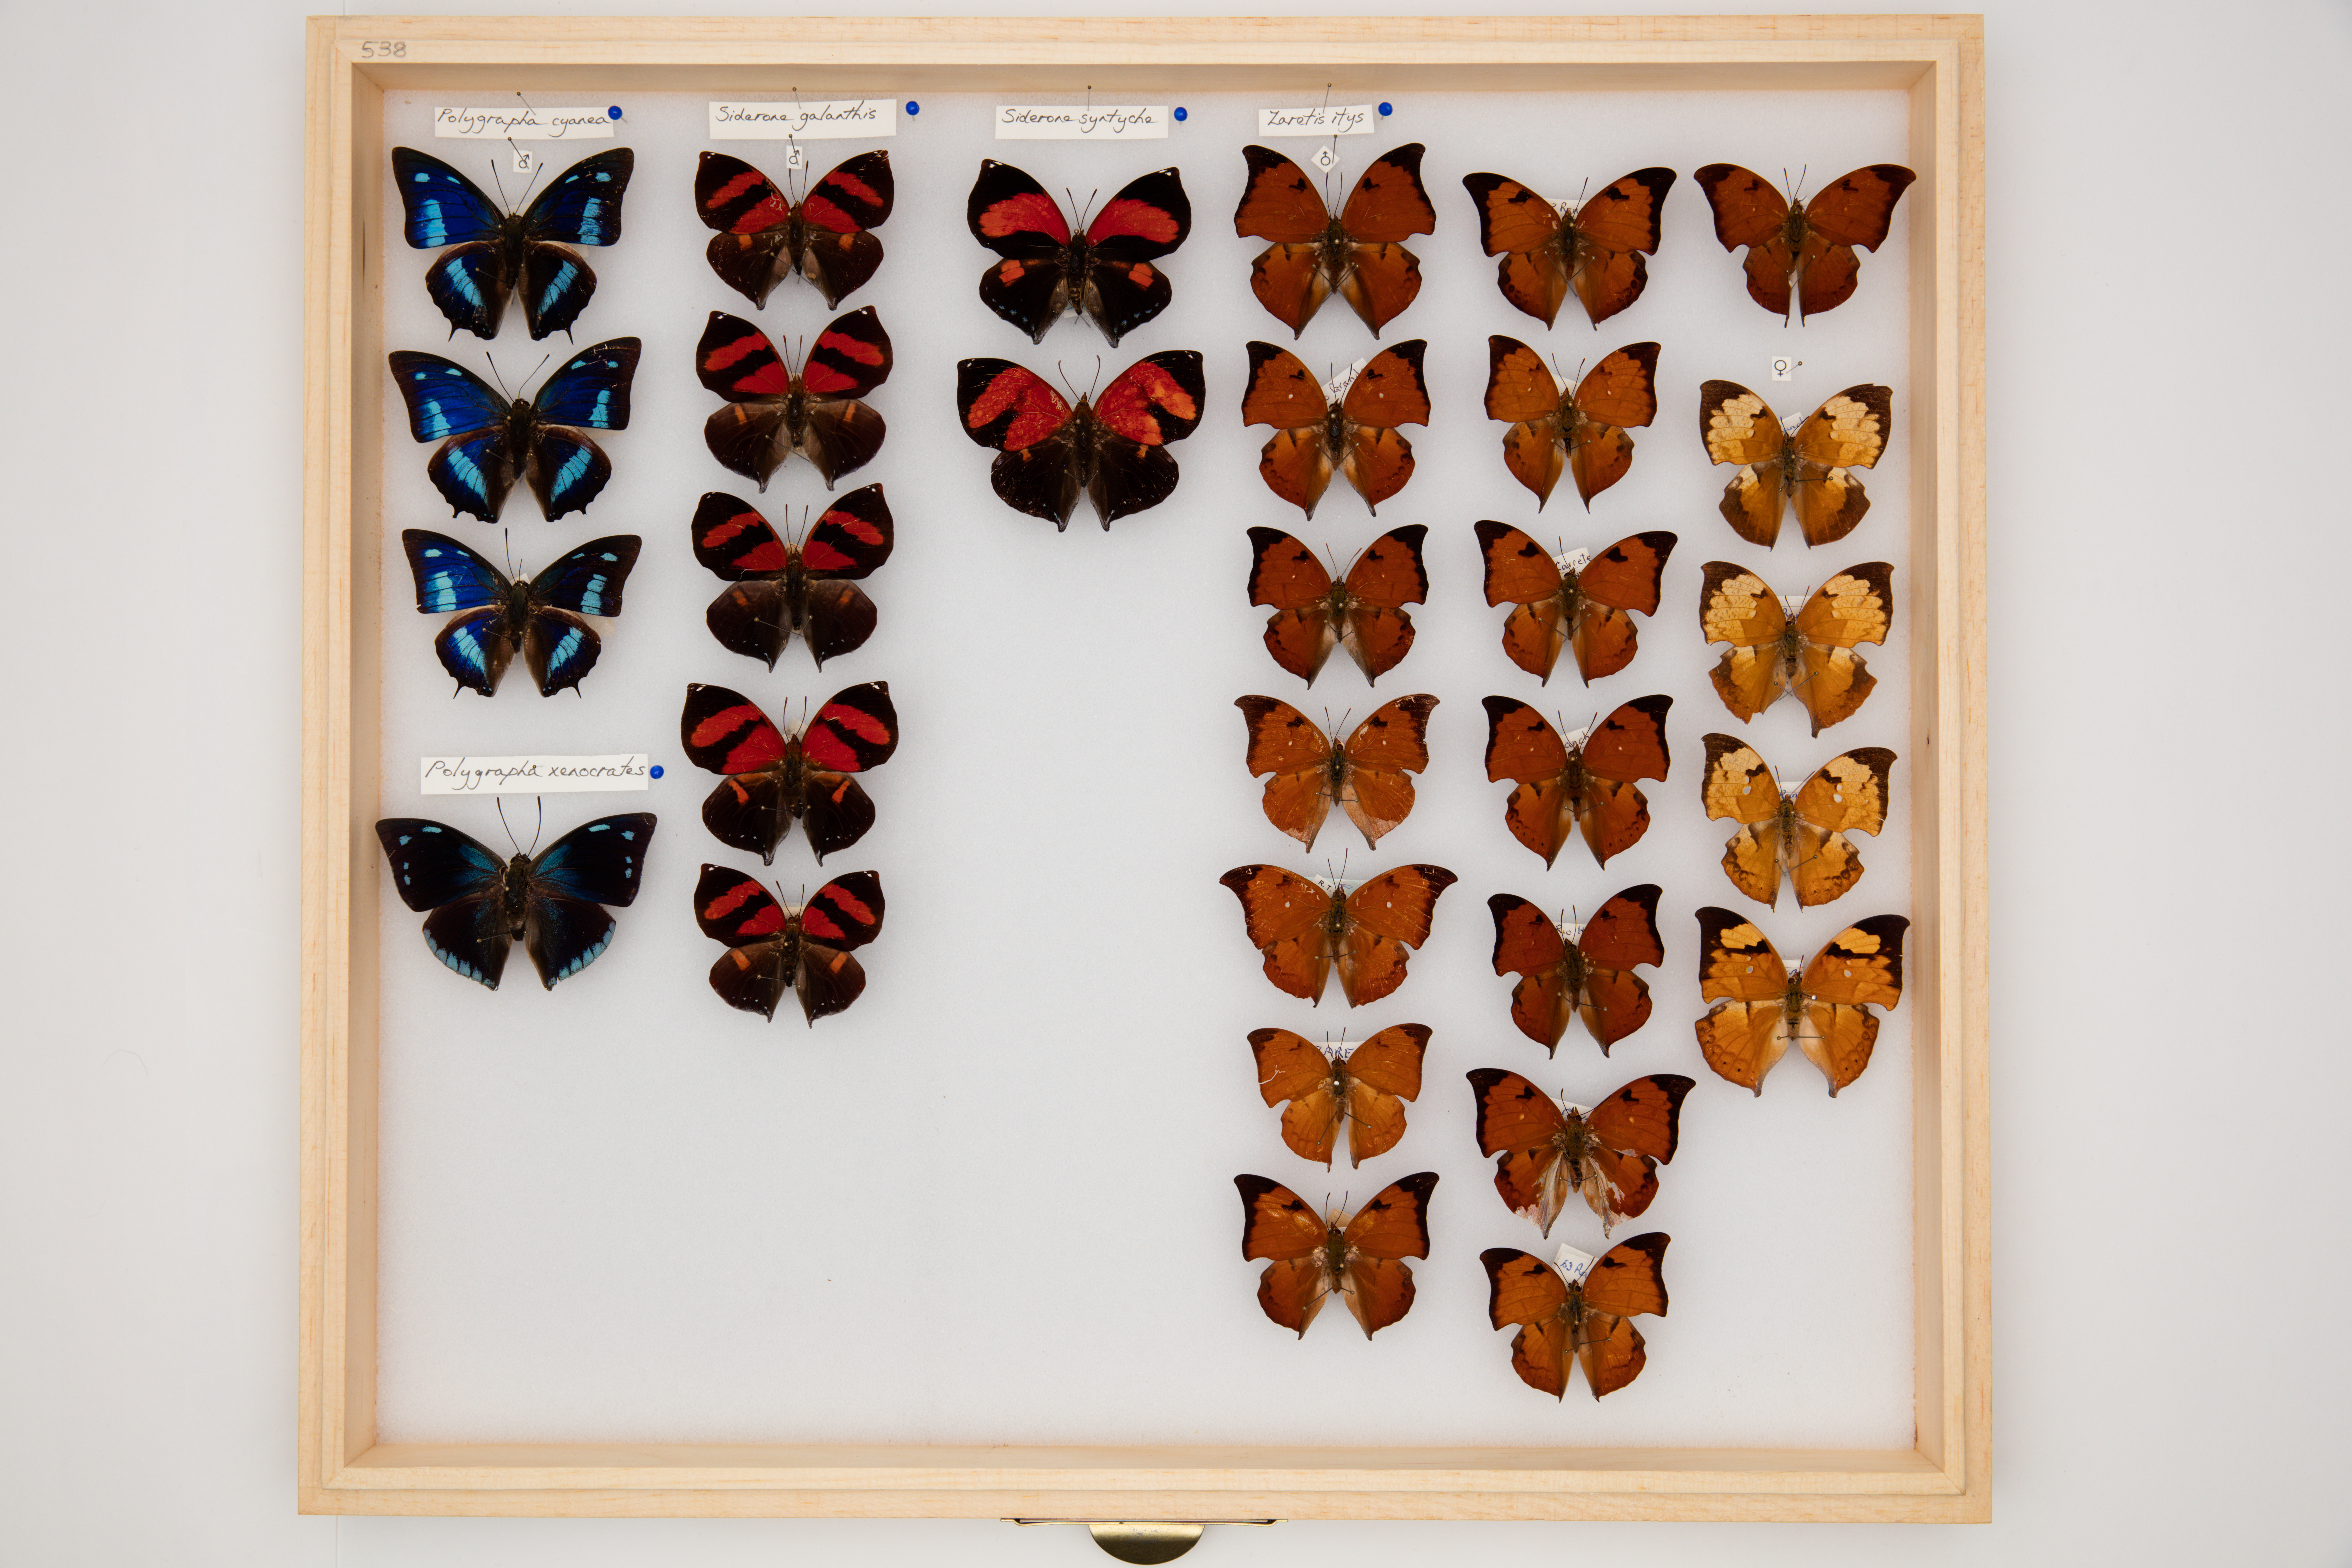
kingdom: Animalia
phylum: Arthropoda
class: Insecta
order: Lepidoptera
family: Nymphalidae
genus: Siderone
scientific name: Siderone galanthis
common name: Red-striped leafwing
